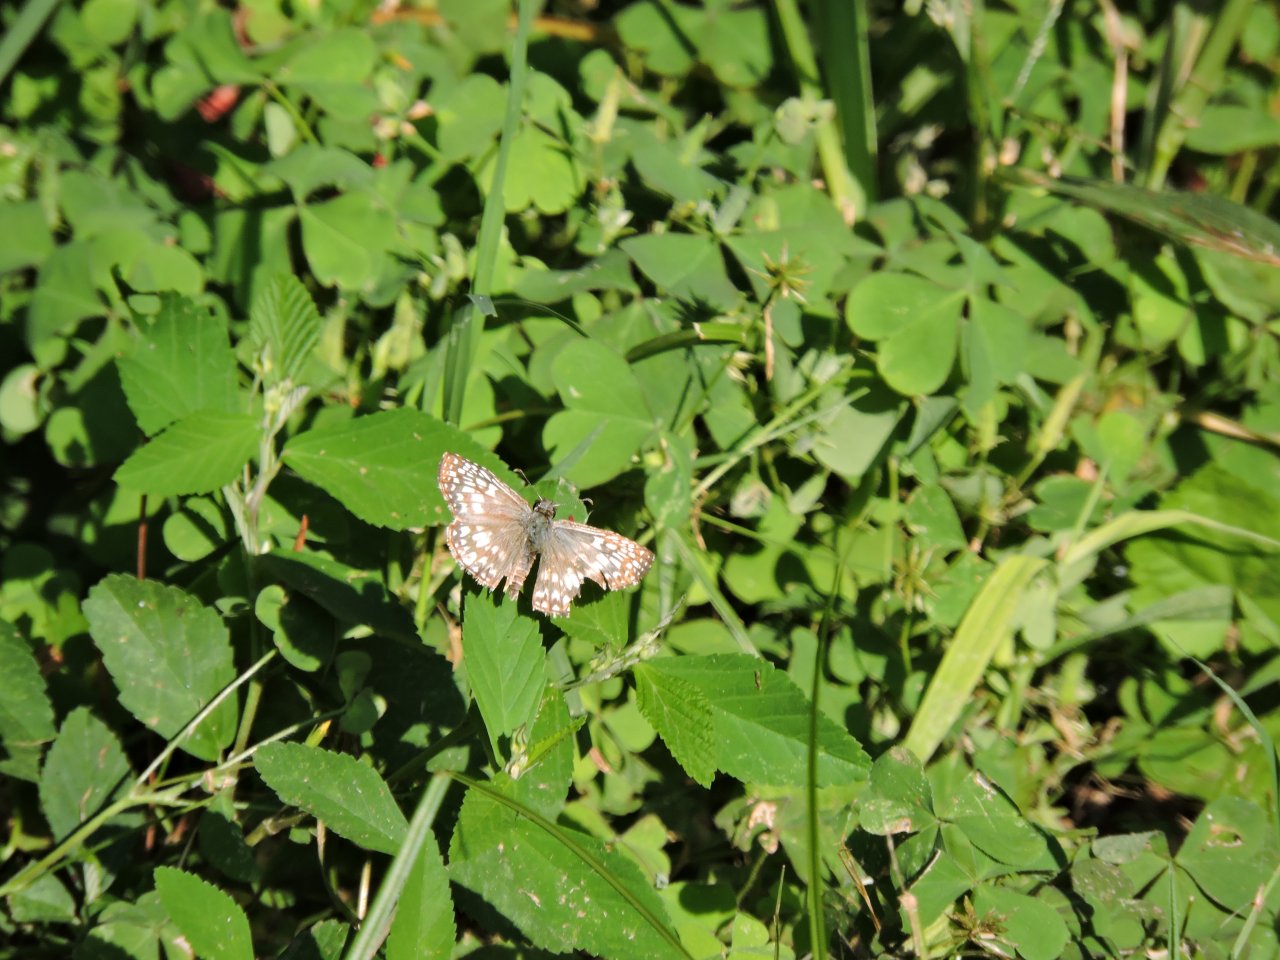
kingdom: Animalia
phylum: Arthropoda
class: Insecta
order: Lepidoptera
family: Hesperiidae
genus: Pyrgus
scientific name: Pyrgus oileus
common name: Tropical Checkered-Skipper
